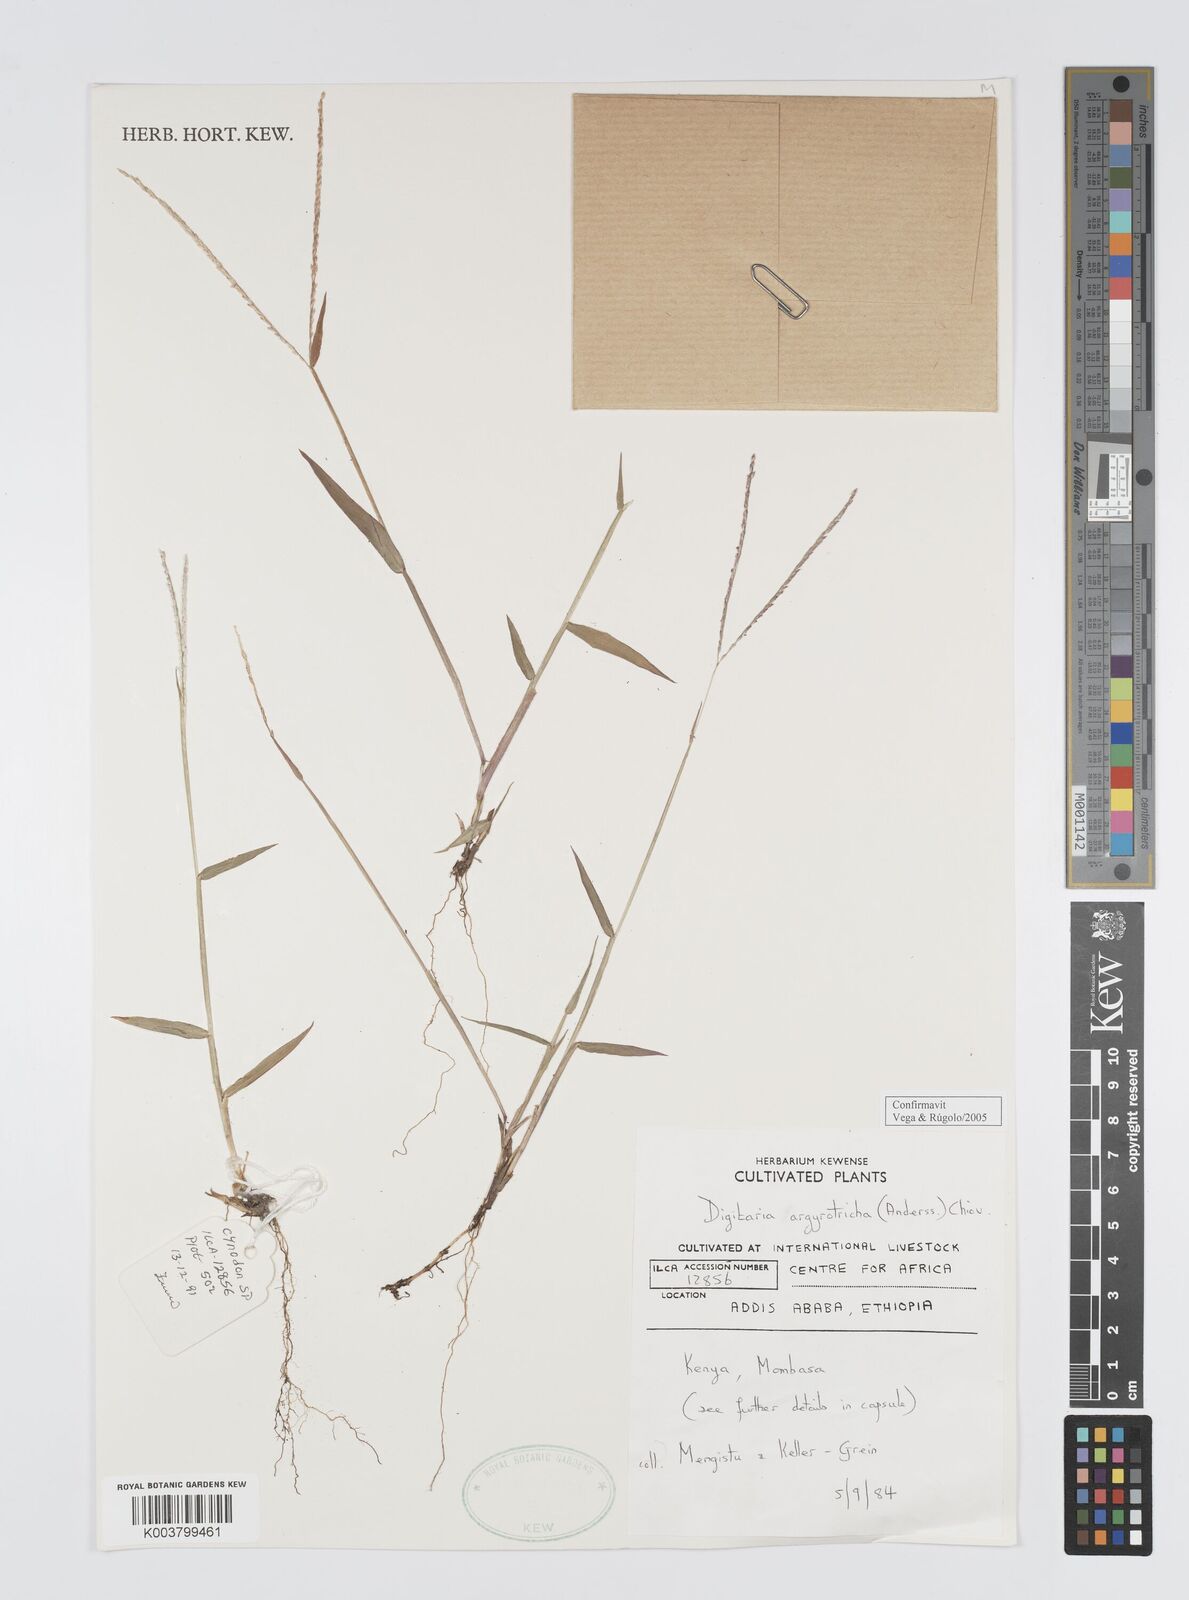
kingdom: Plantae
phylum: Tracheophyta
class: Liliopsida
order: Poales
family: Poaceae
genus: Digitaria
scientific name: Digitaria argyrotricha
